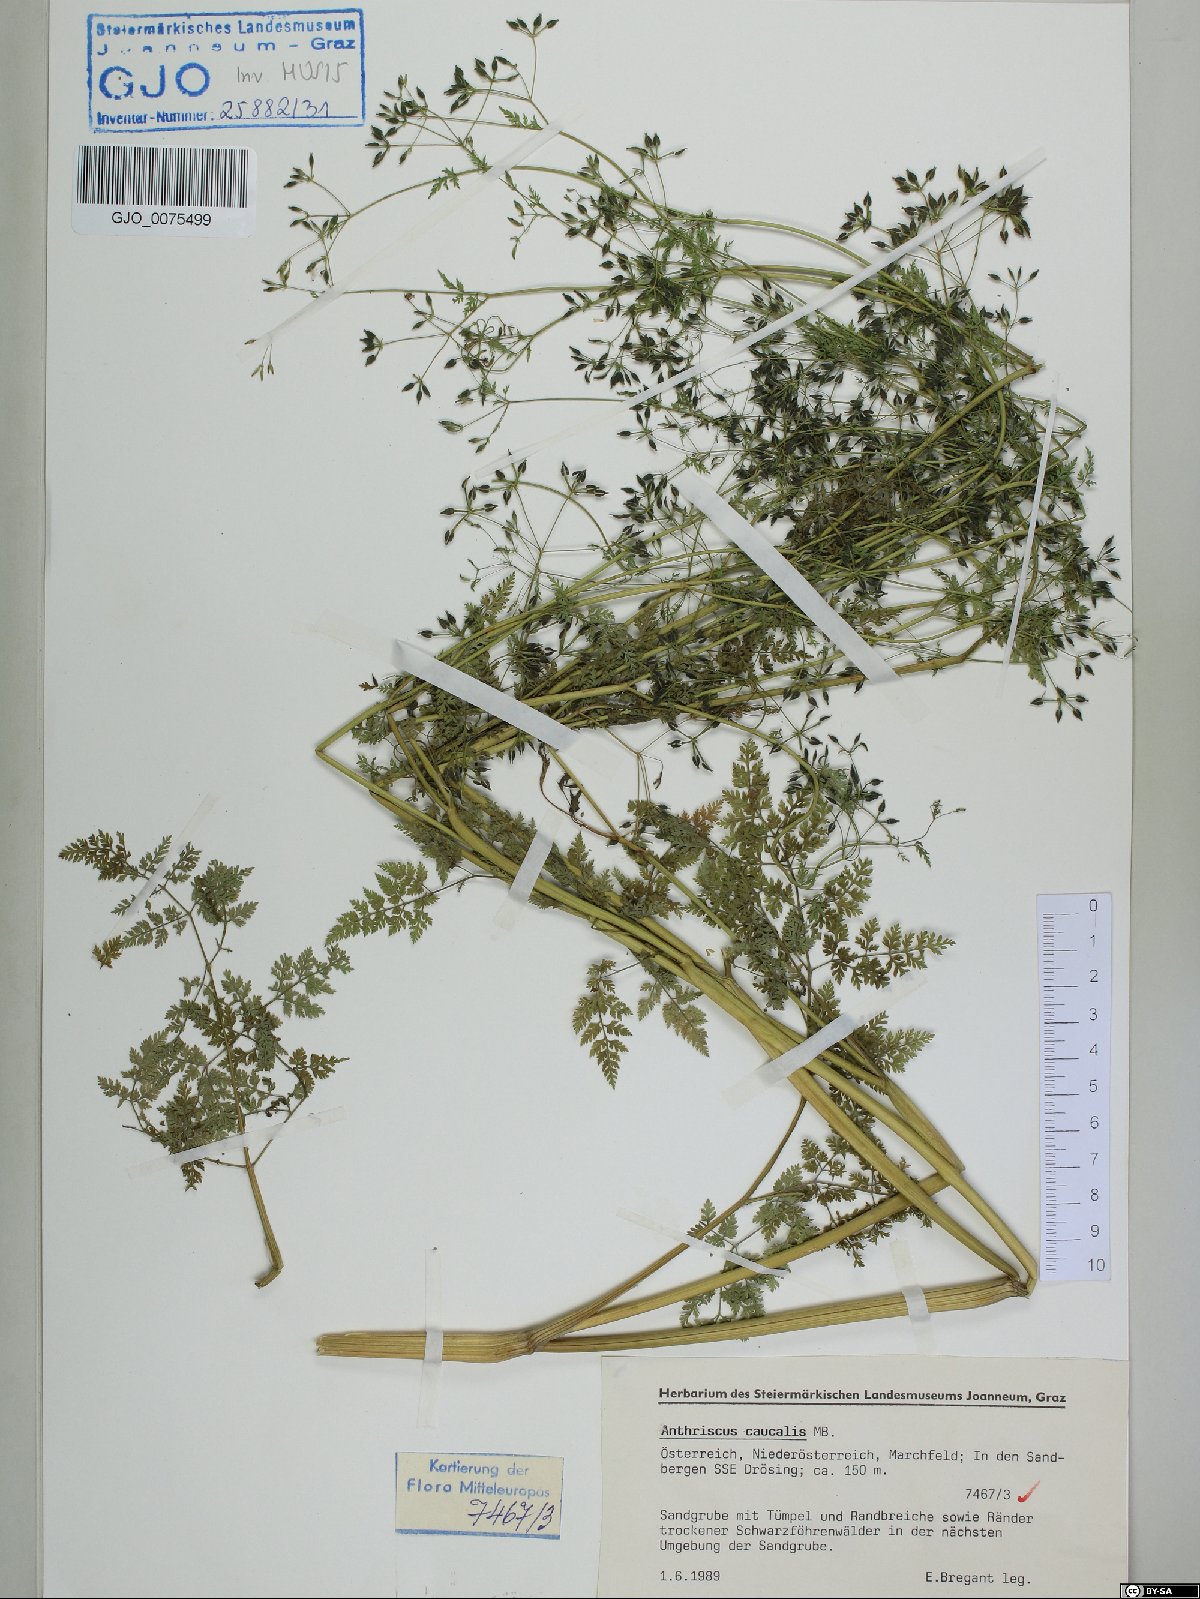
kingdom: Plantae
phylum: Tracheophyta
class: Magnoliopsida
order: Apiales
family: Apiaceae
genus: Anthriscus
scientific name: Anthriscus caucalis
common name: Bur chervil
